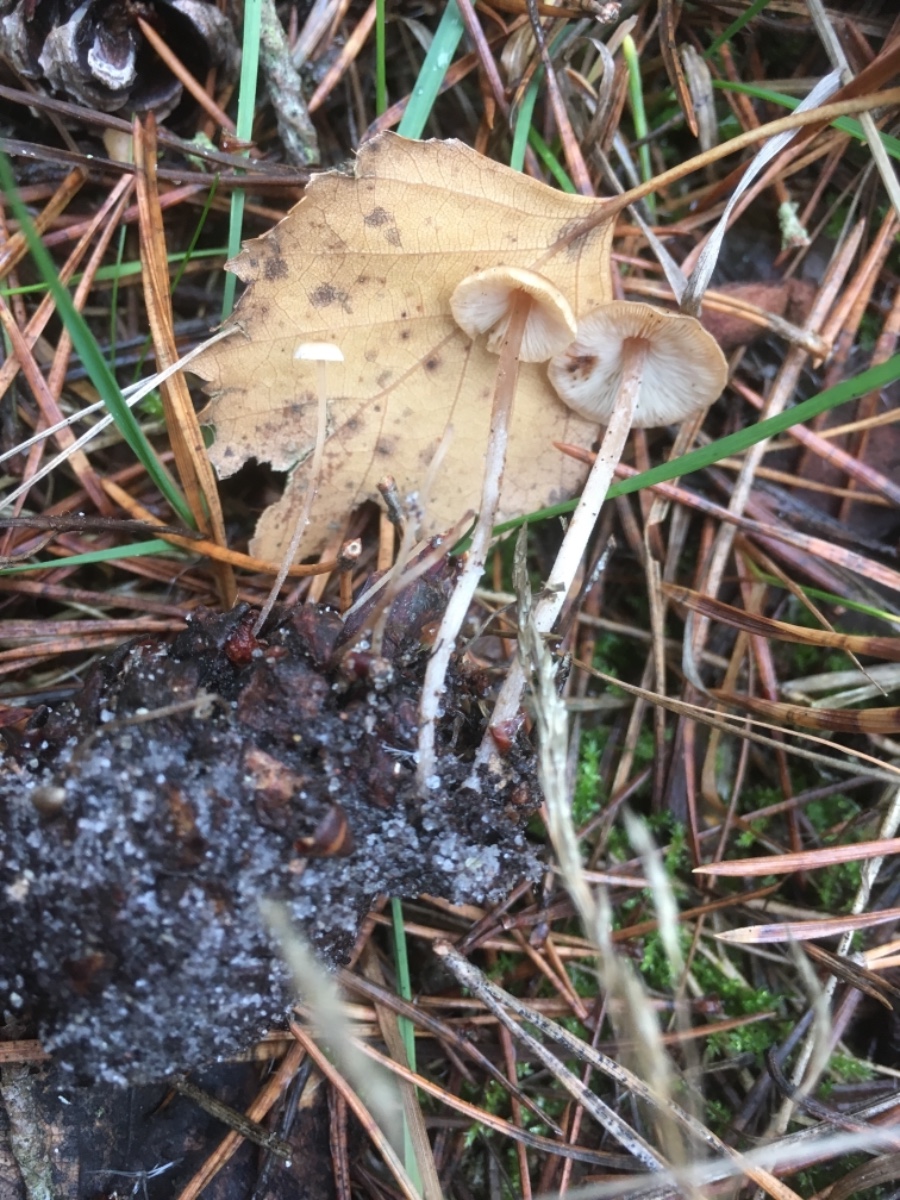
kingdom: Fungi
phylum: Basidiomycota
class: Agaricomycetes
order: Agaricales
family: Marasmiaceae
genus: Baeospora
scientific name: Baeospora myosura
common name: koglebruskhat
